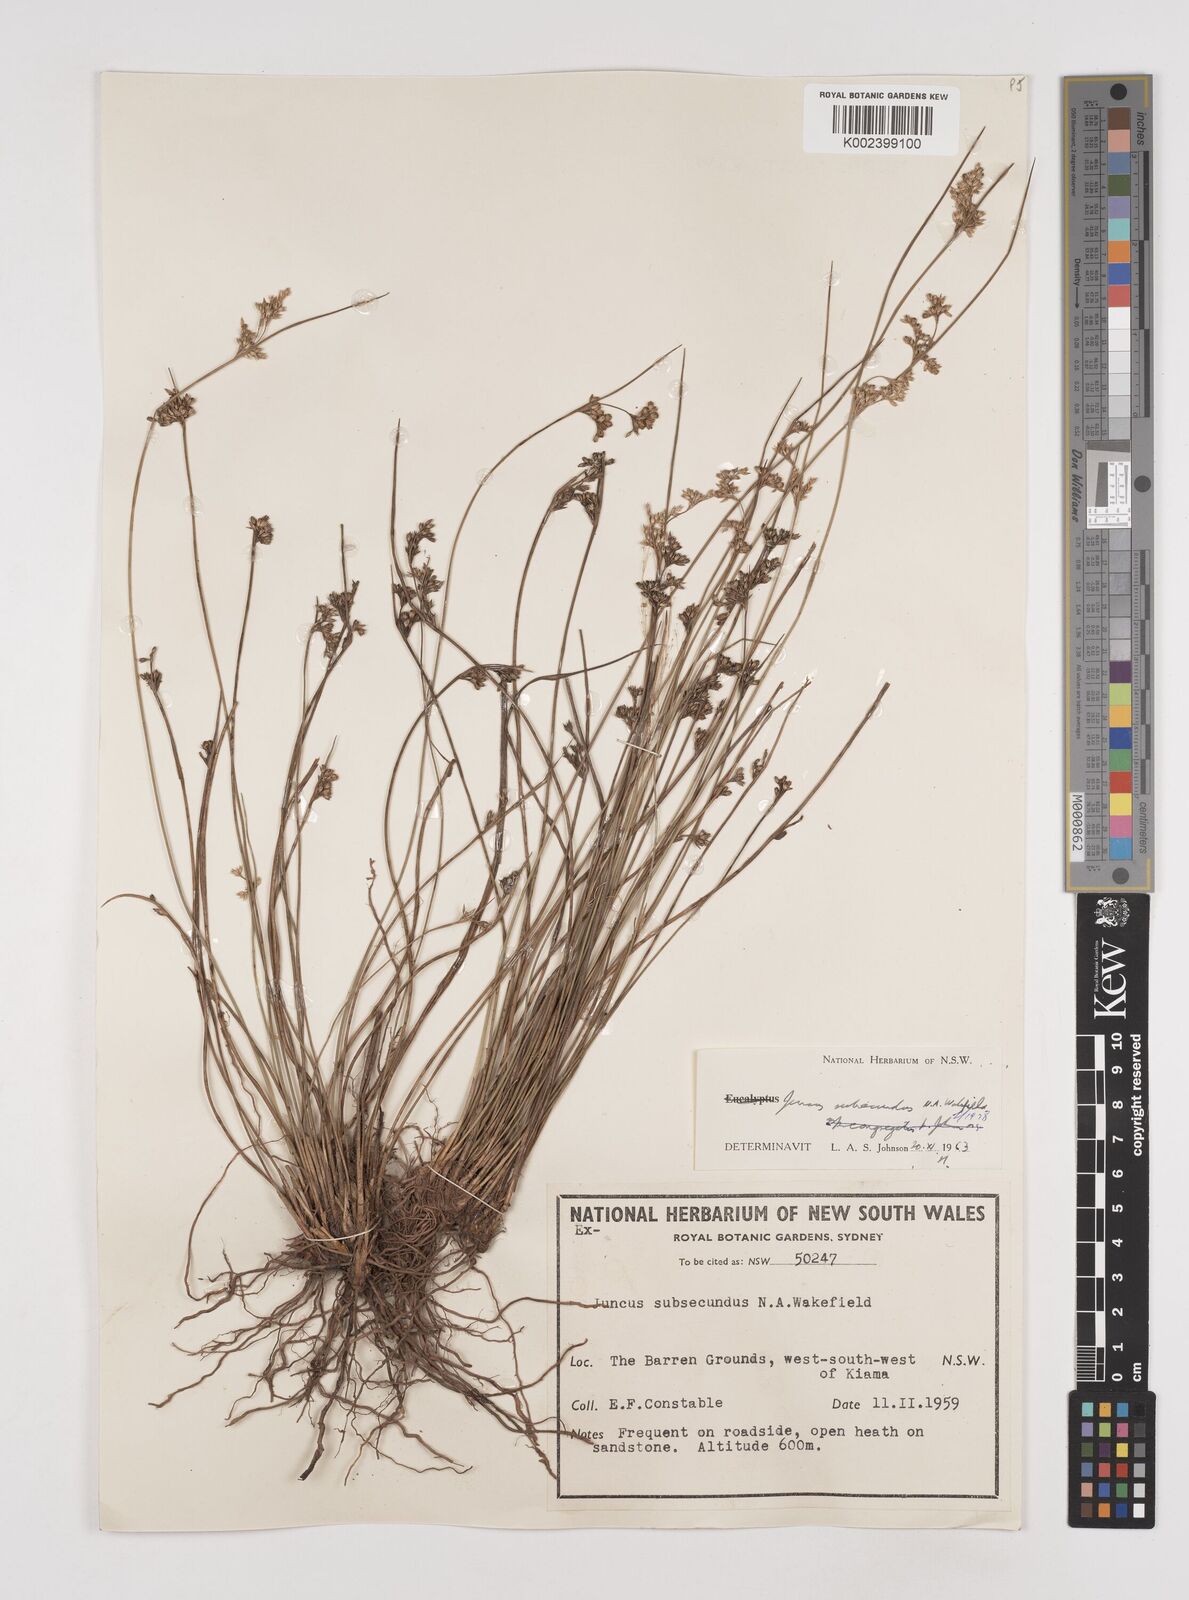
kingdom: Plantae
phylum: Tracheophyta
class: Liliopsida
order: Poales
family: Juncaceae
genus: Juncus
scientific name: Juncus subsecundus
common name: Fingered rush
